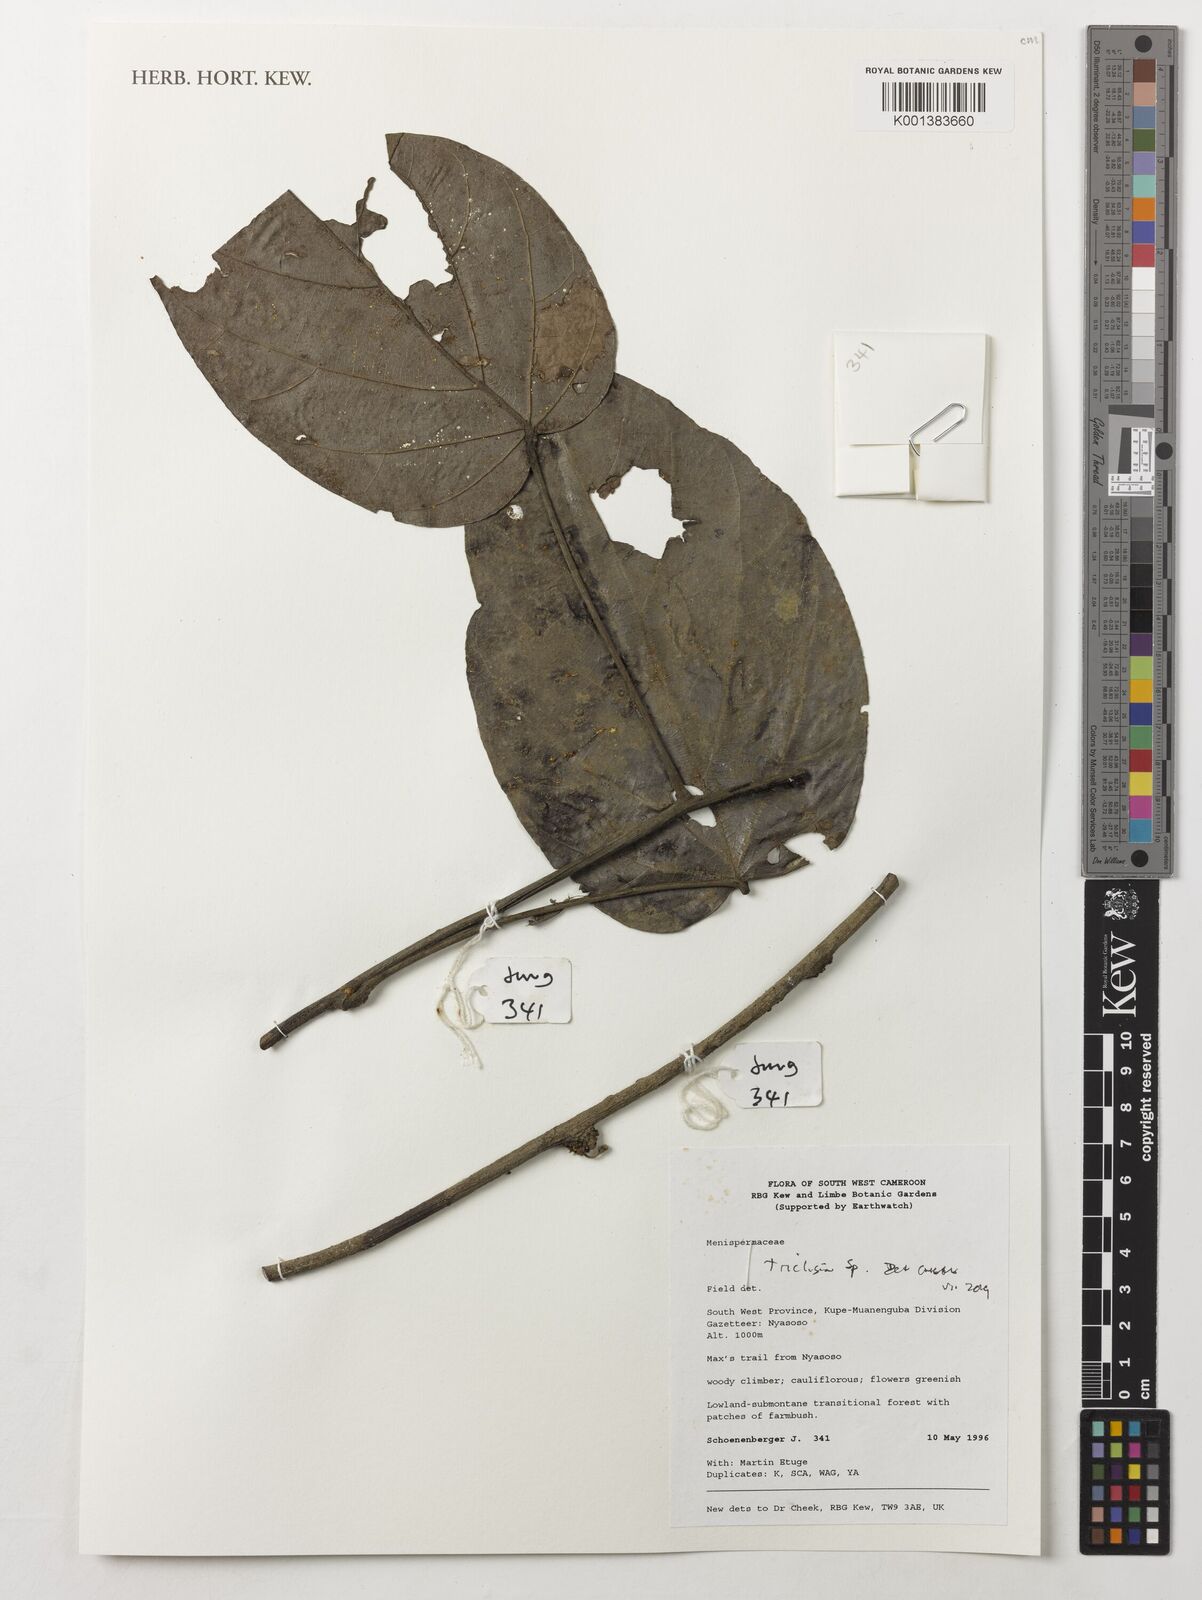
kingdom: Plantae
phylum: Tracheophyta
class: Magnoliopsida
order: Ranunculales
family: Menispermaceae
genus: Triclisia
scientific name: Triclisia
